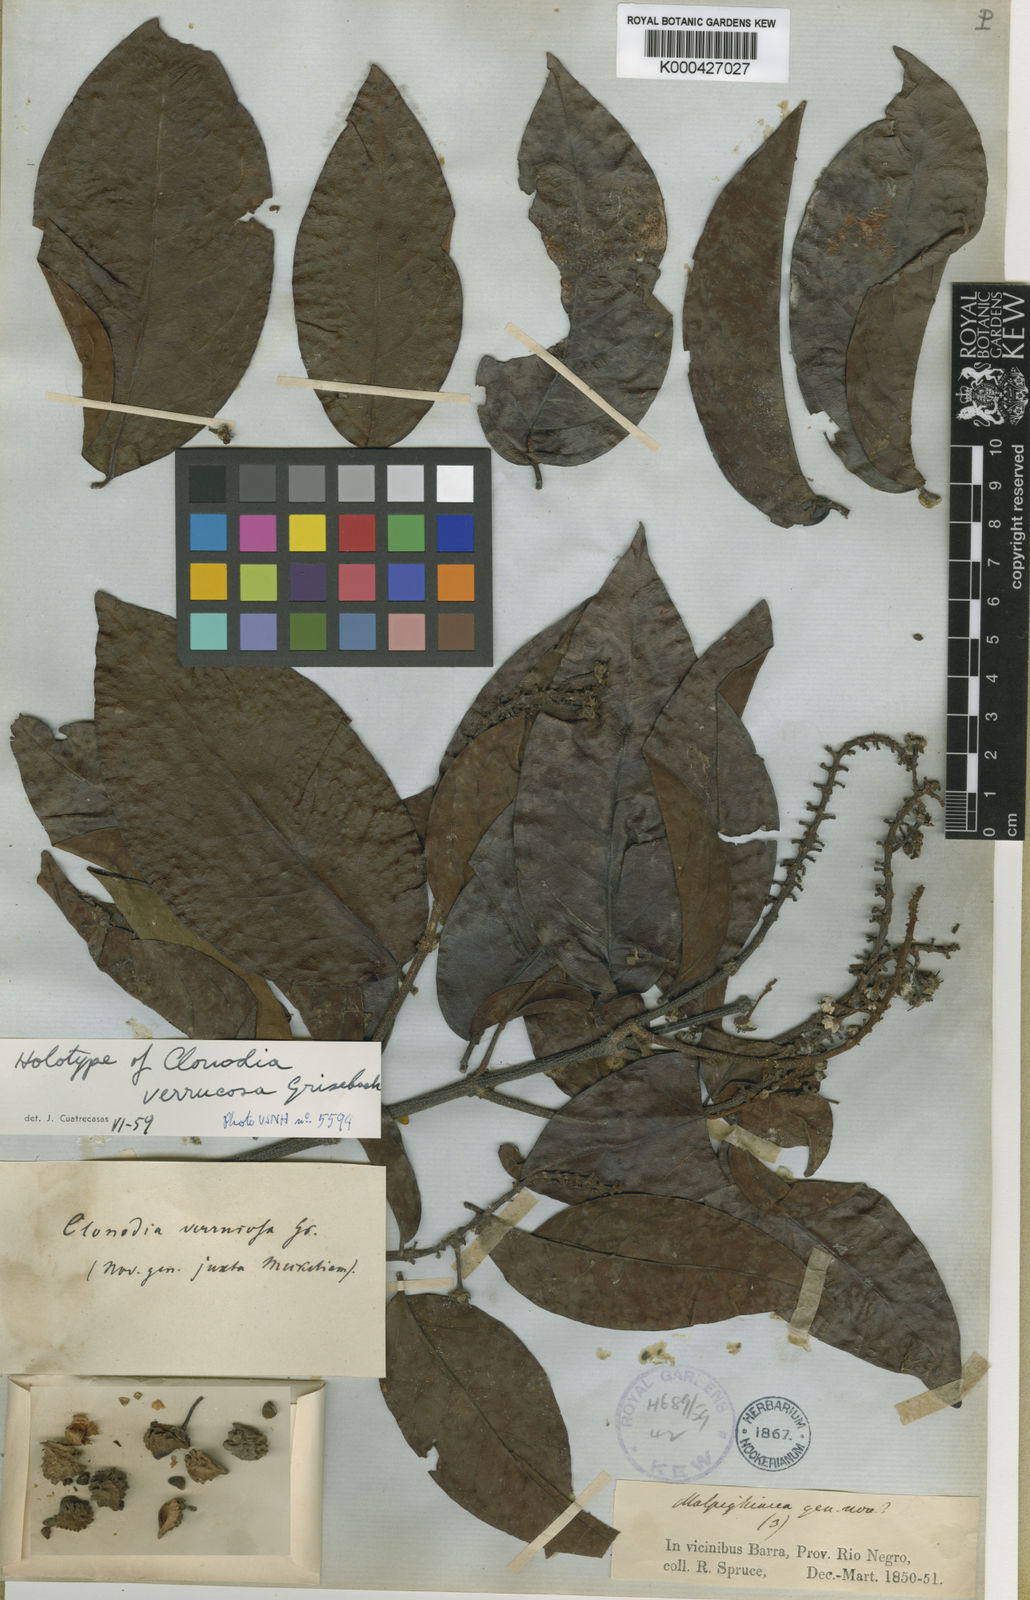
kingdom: Plantae
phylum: Tracheophyta
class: Magnoliopsida
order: Malpighiales
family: Malpighiaceae
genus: Heteropterys
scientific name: Heteropterys racemosa
